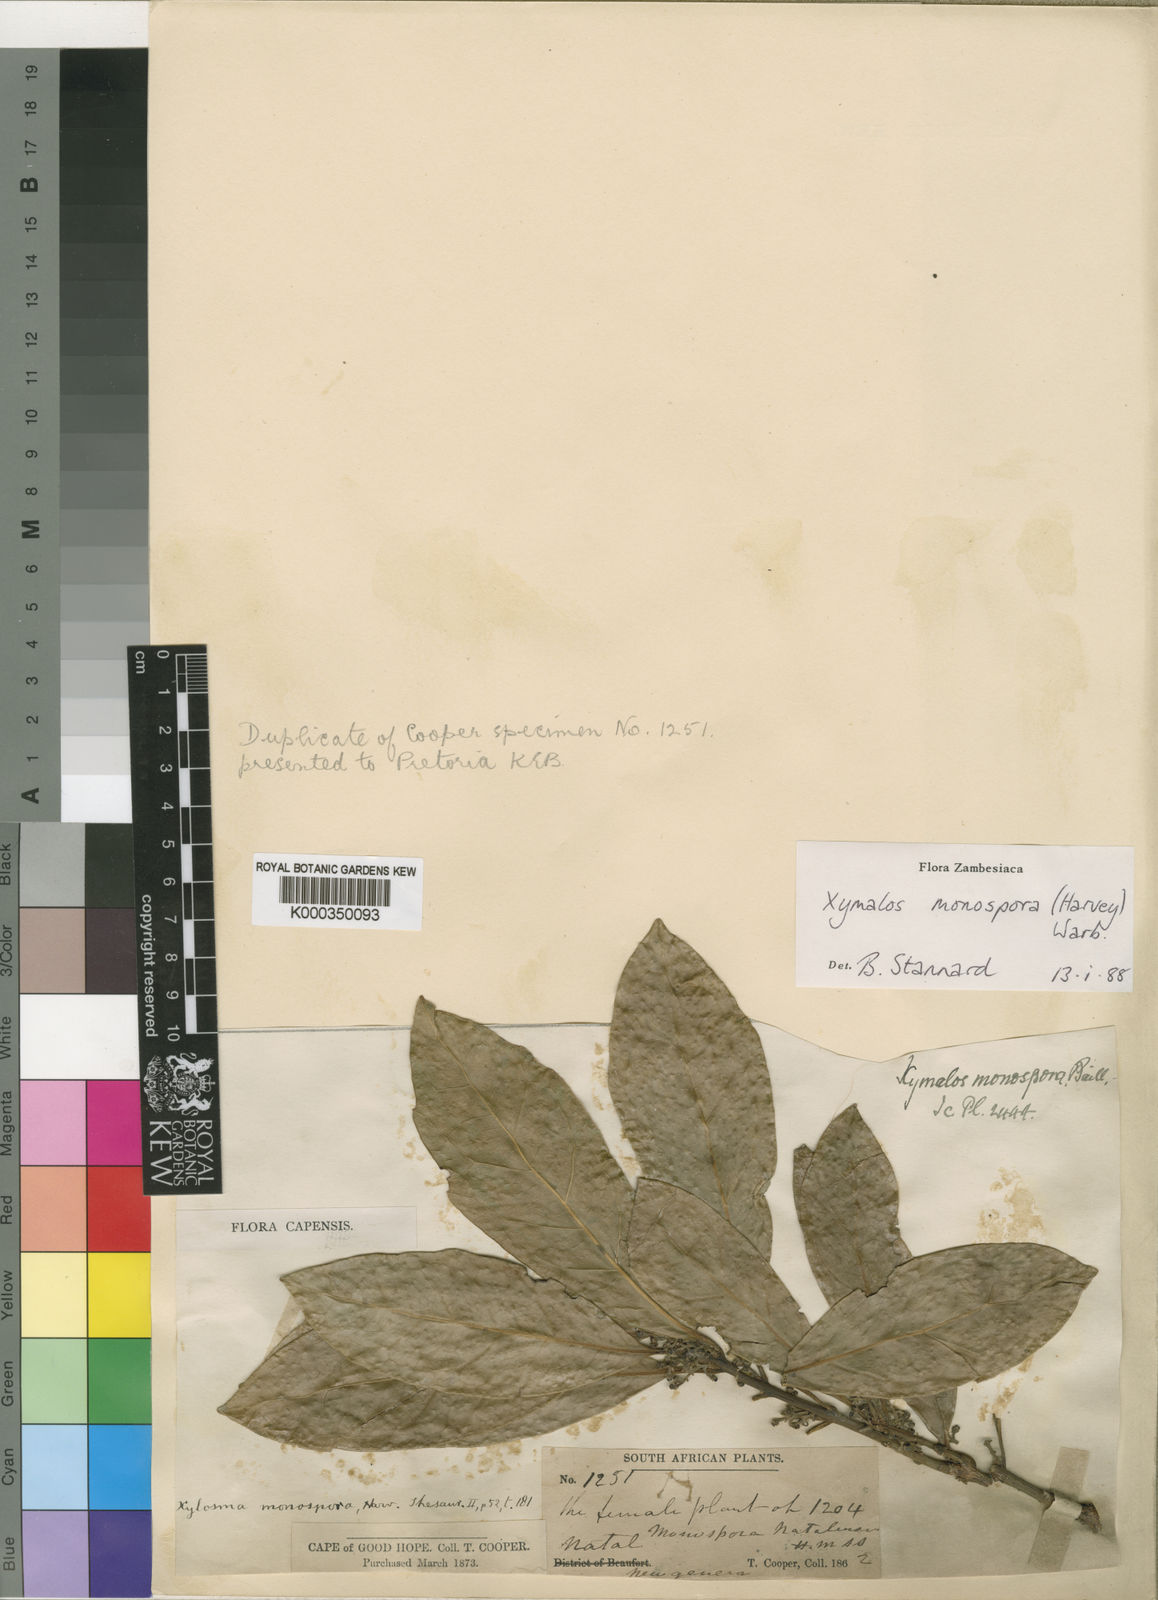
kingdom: Plantae
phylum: Tracheophyta
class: Magnoliopsida
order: Laurales
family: Monimiaceae
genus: Xymalos
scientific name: Xymalos
